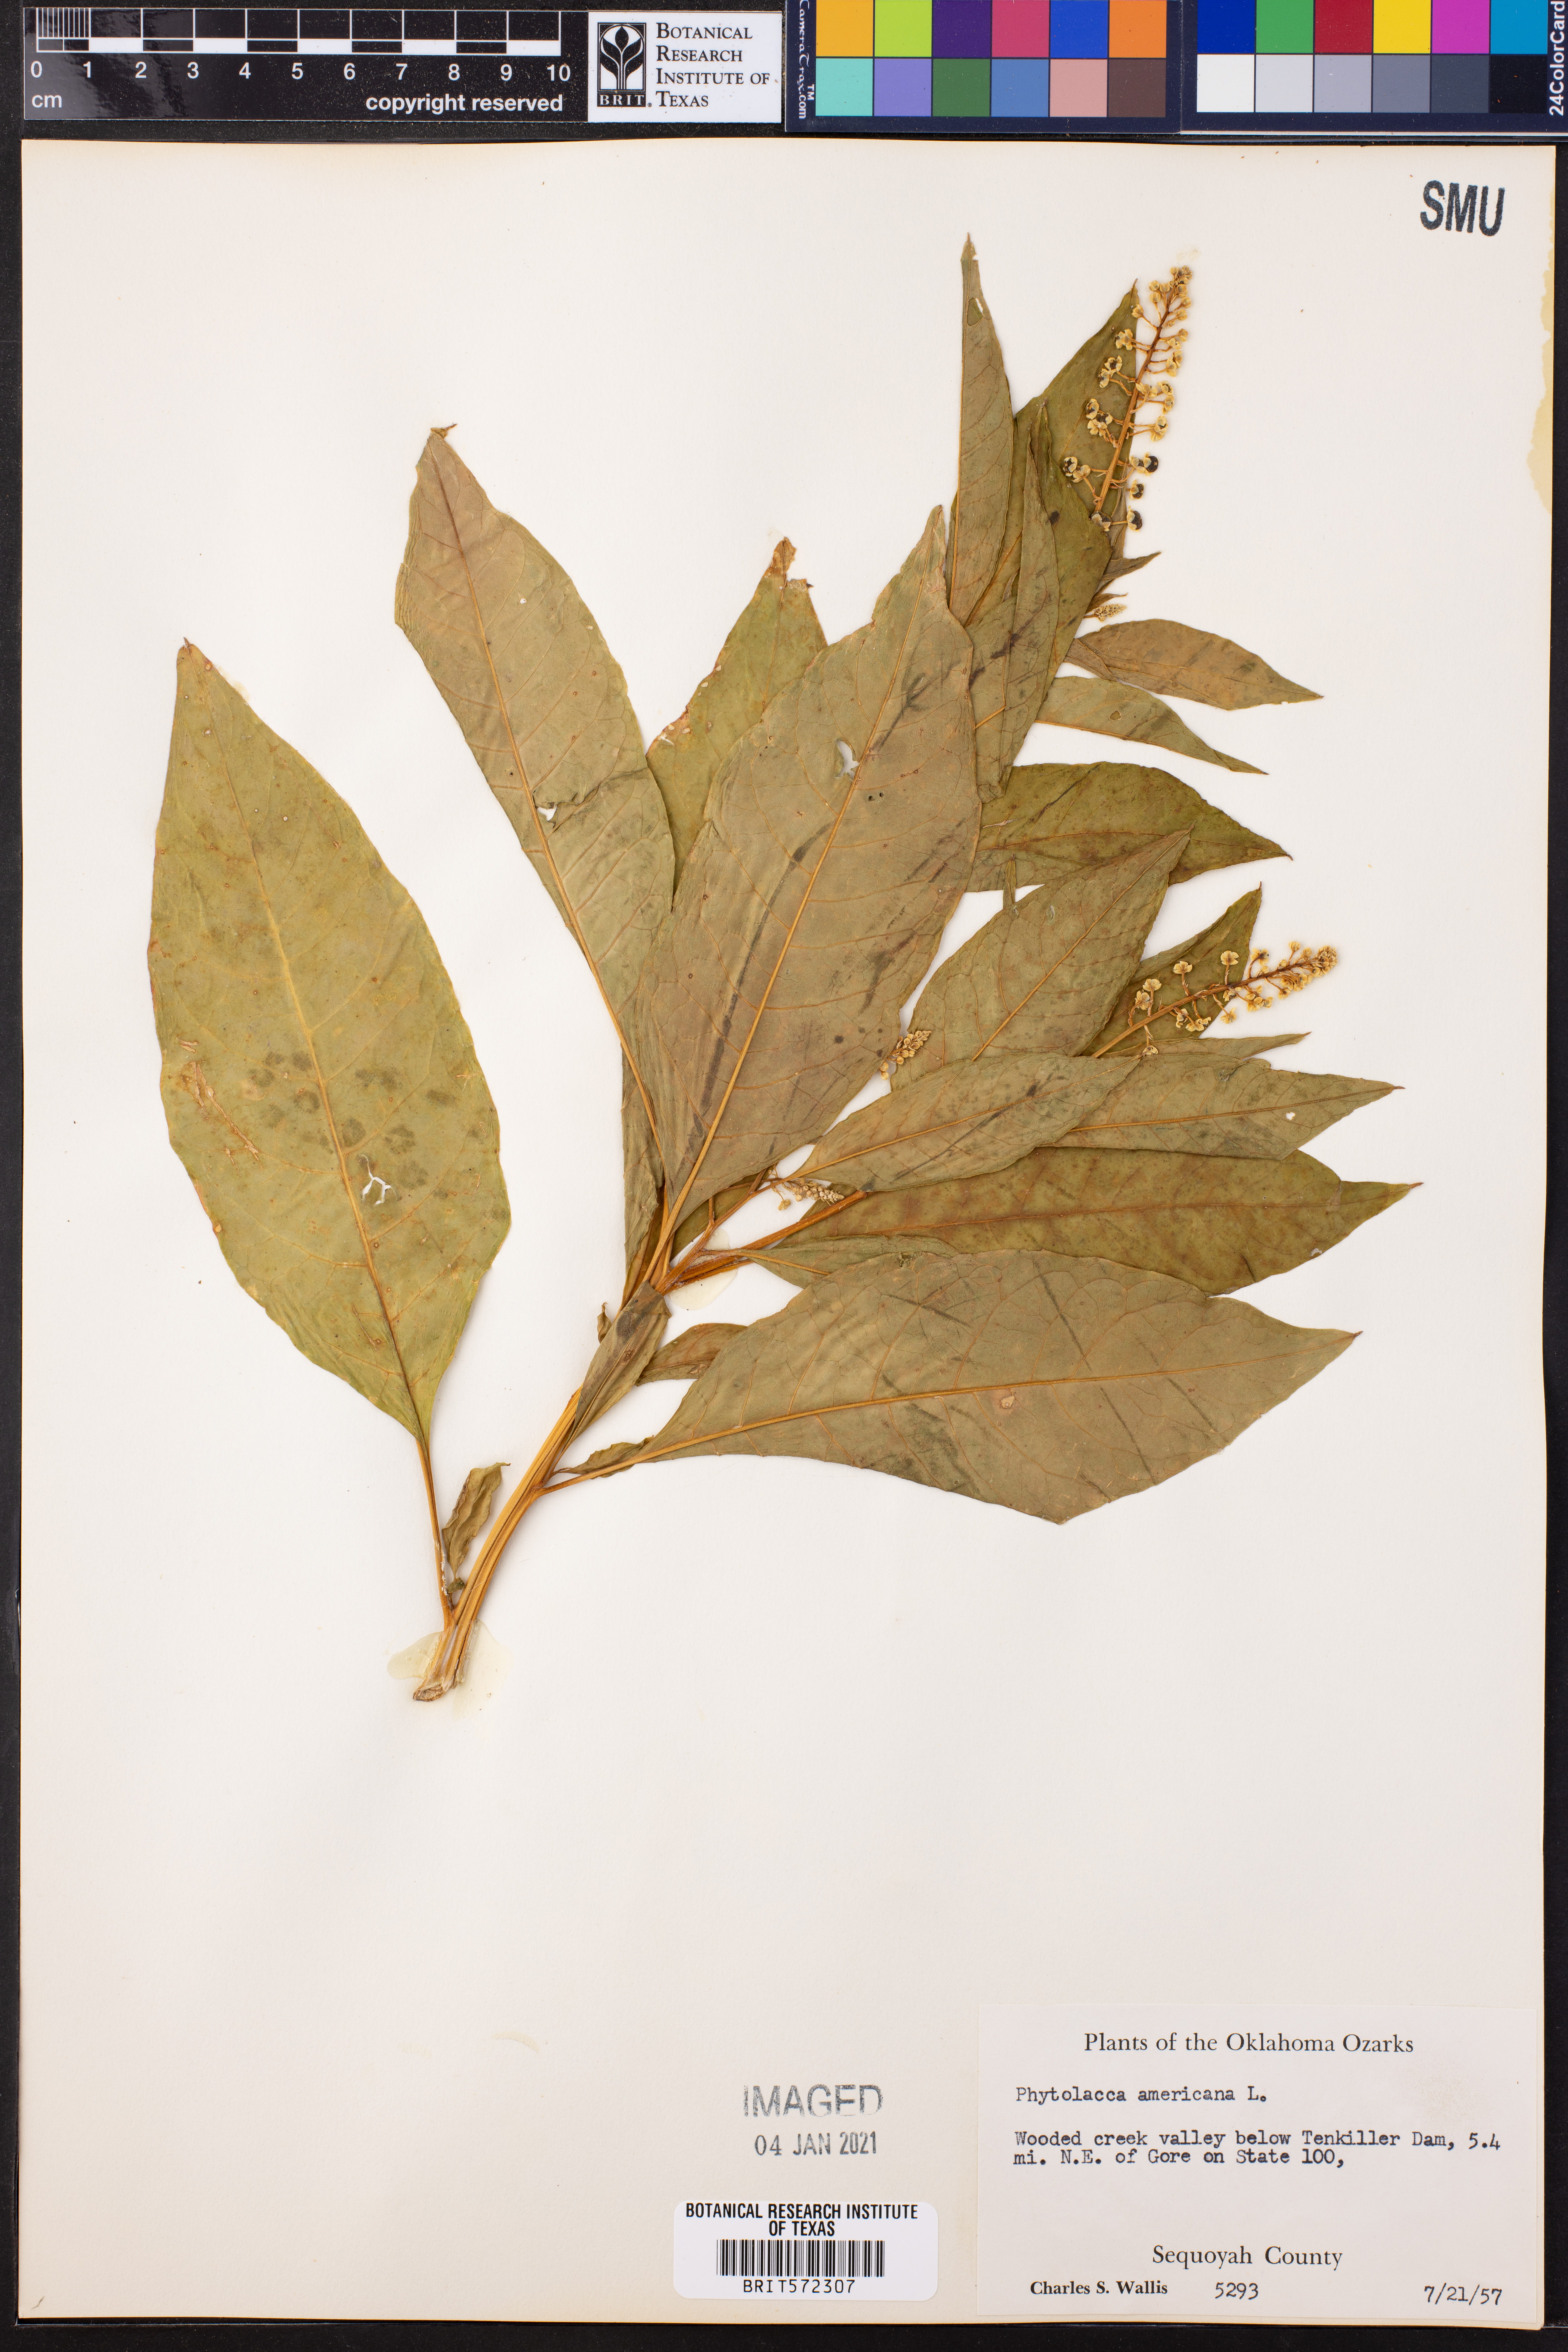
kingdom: Plantae
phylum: Tracheophyta
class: Magnoliopsida
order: Caryophyllales
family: Phytolaccaceae
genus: Phytolacca
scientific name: Phytolacca americana
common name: American pokeweed
